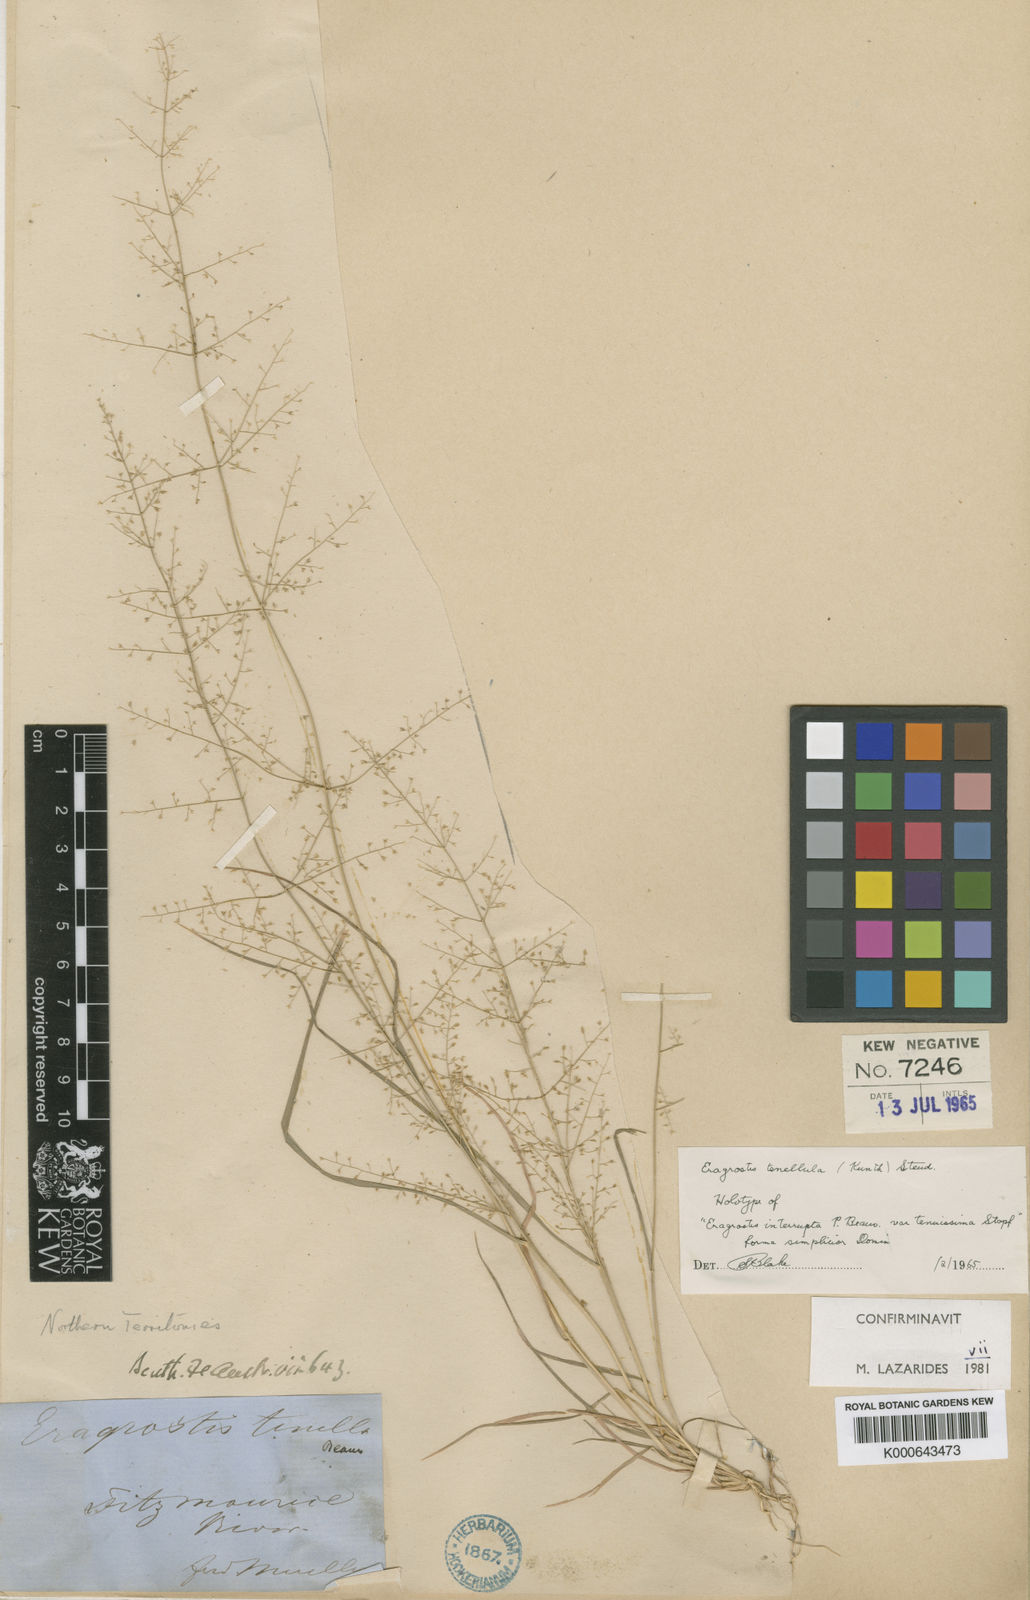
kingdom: Plantae
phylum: Tracheophyta
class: Liliopsida
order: Poales
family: Poaceae
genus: Eragrostis
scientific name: Eragrostis tenellula
